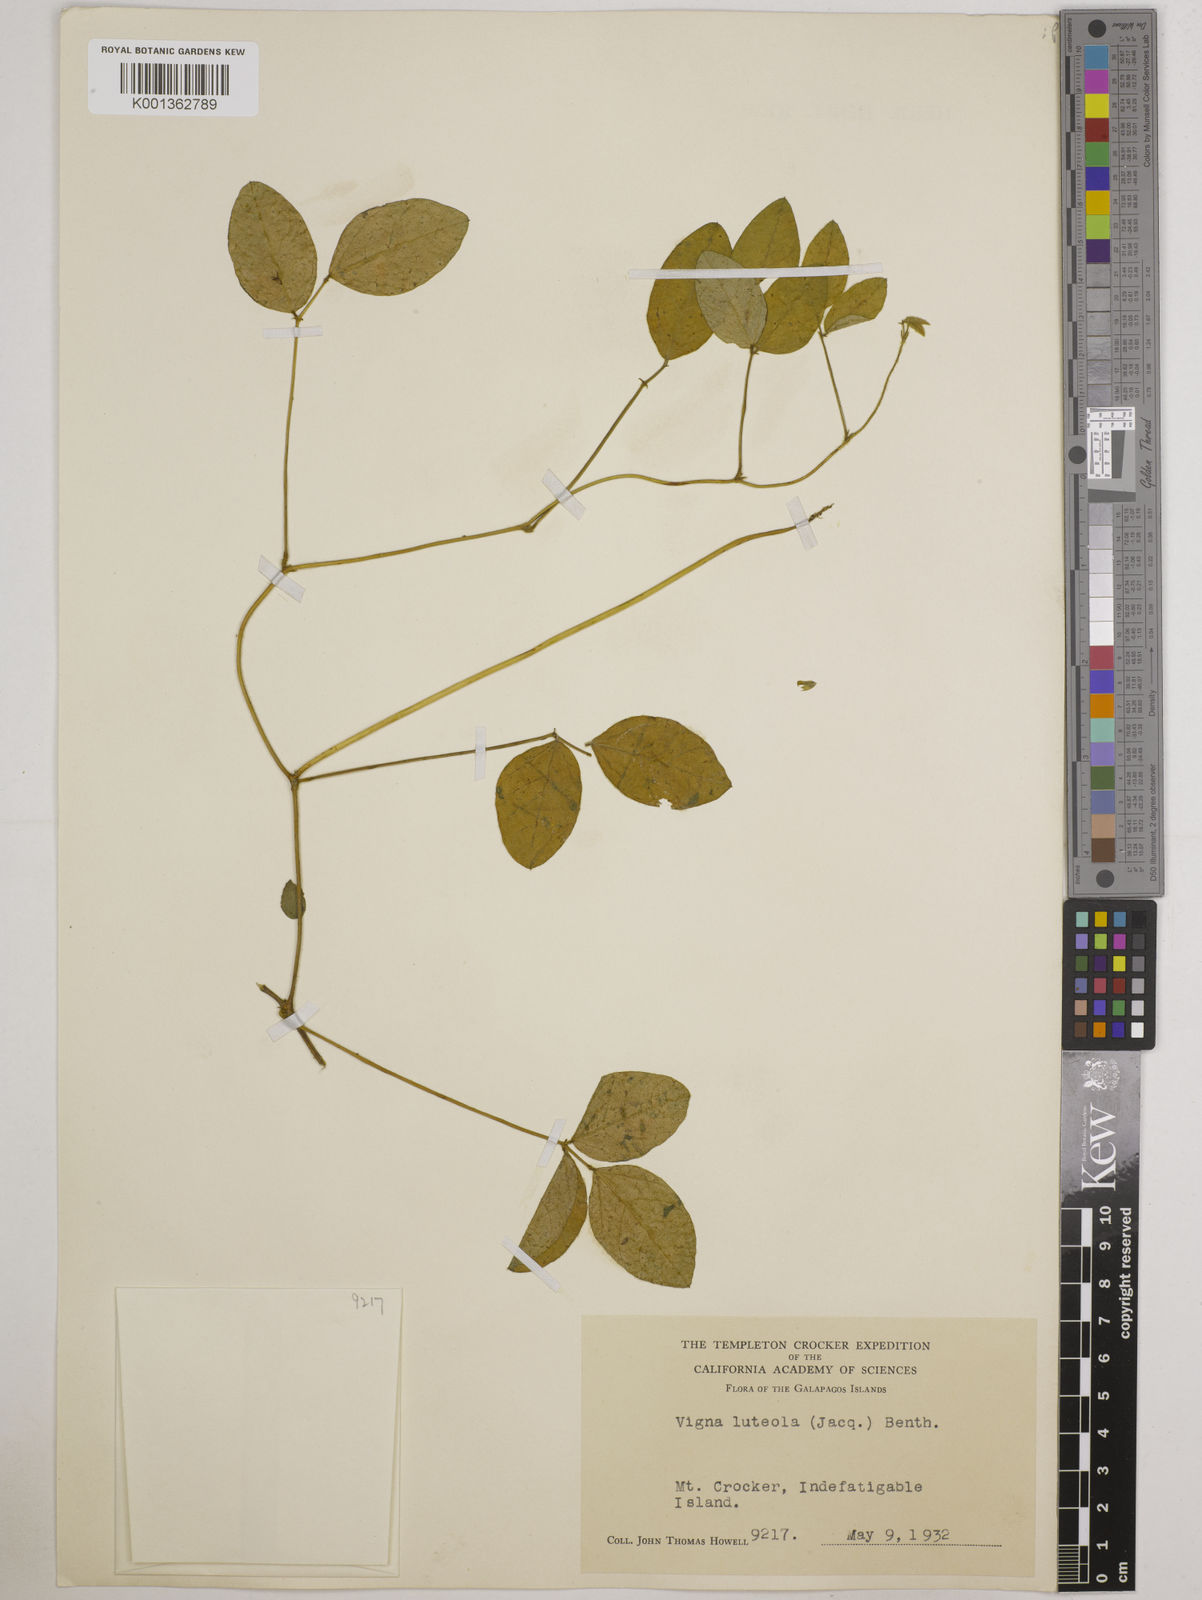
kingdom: Plantae
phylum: Tracheophyta
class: Magnoliopsida
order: Fabales
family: Fabaceae
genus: Vigna
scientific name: Vigna luteola
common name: Hairypod cowpea
